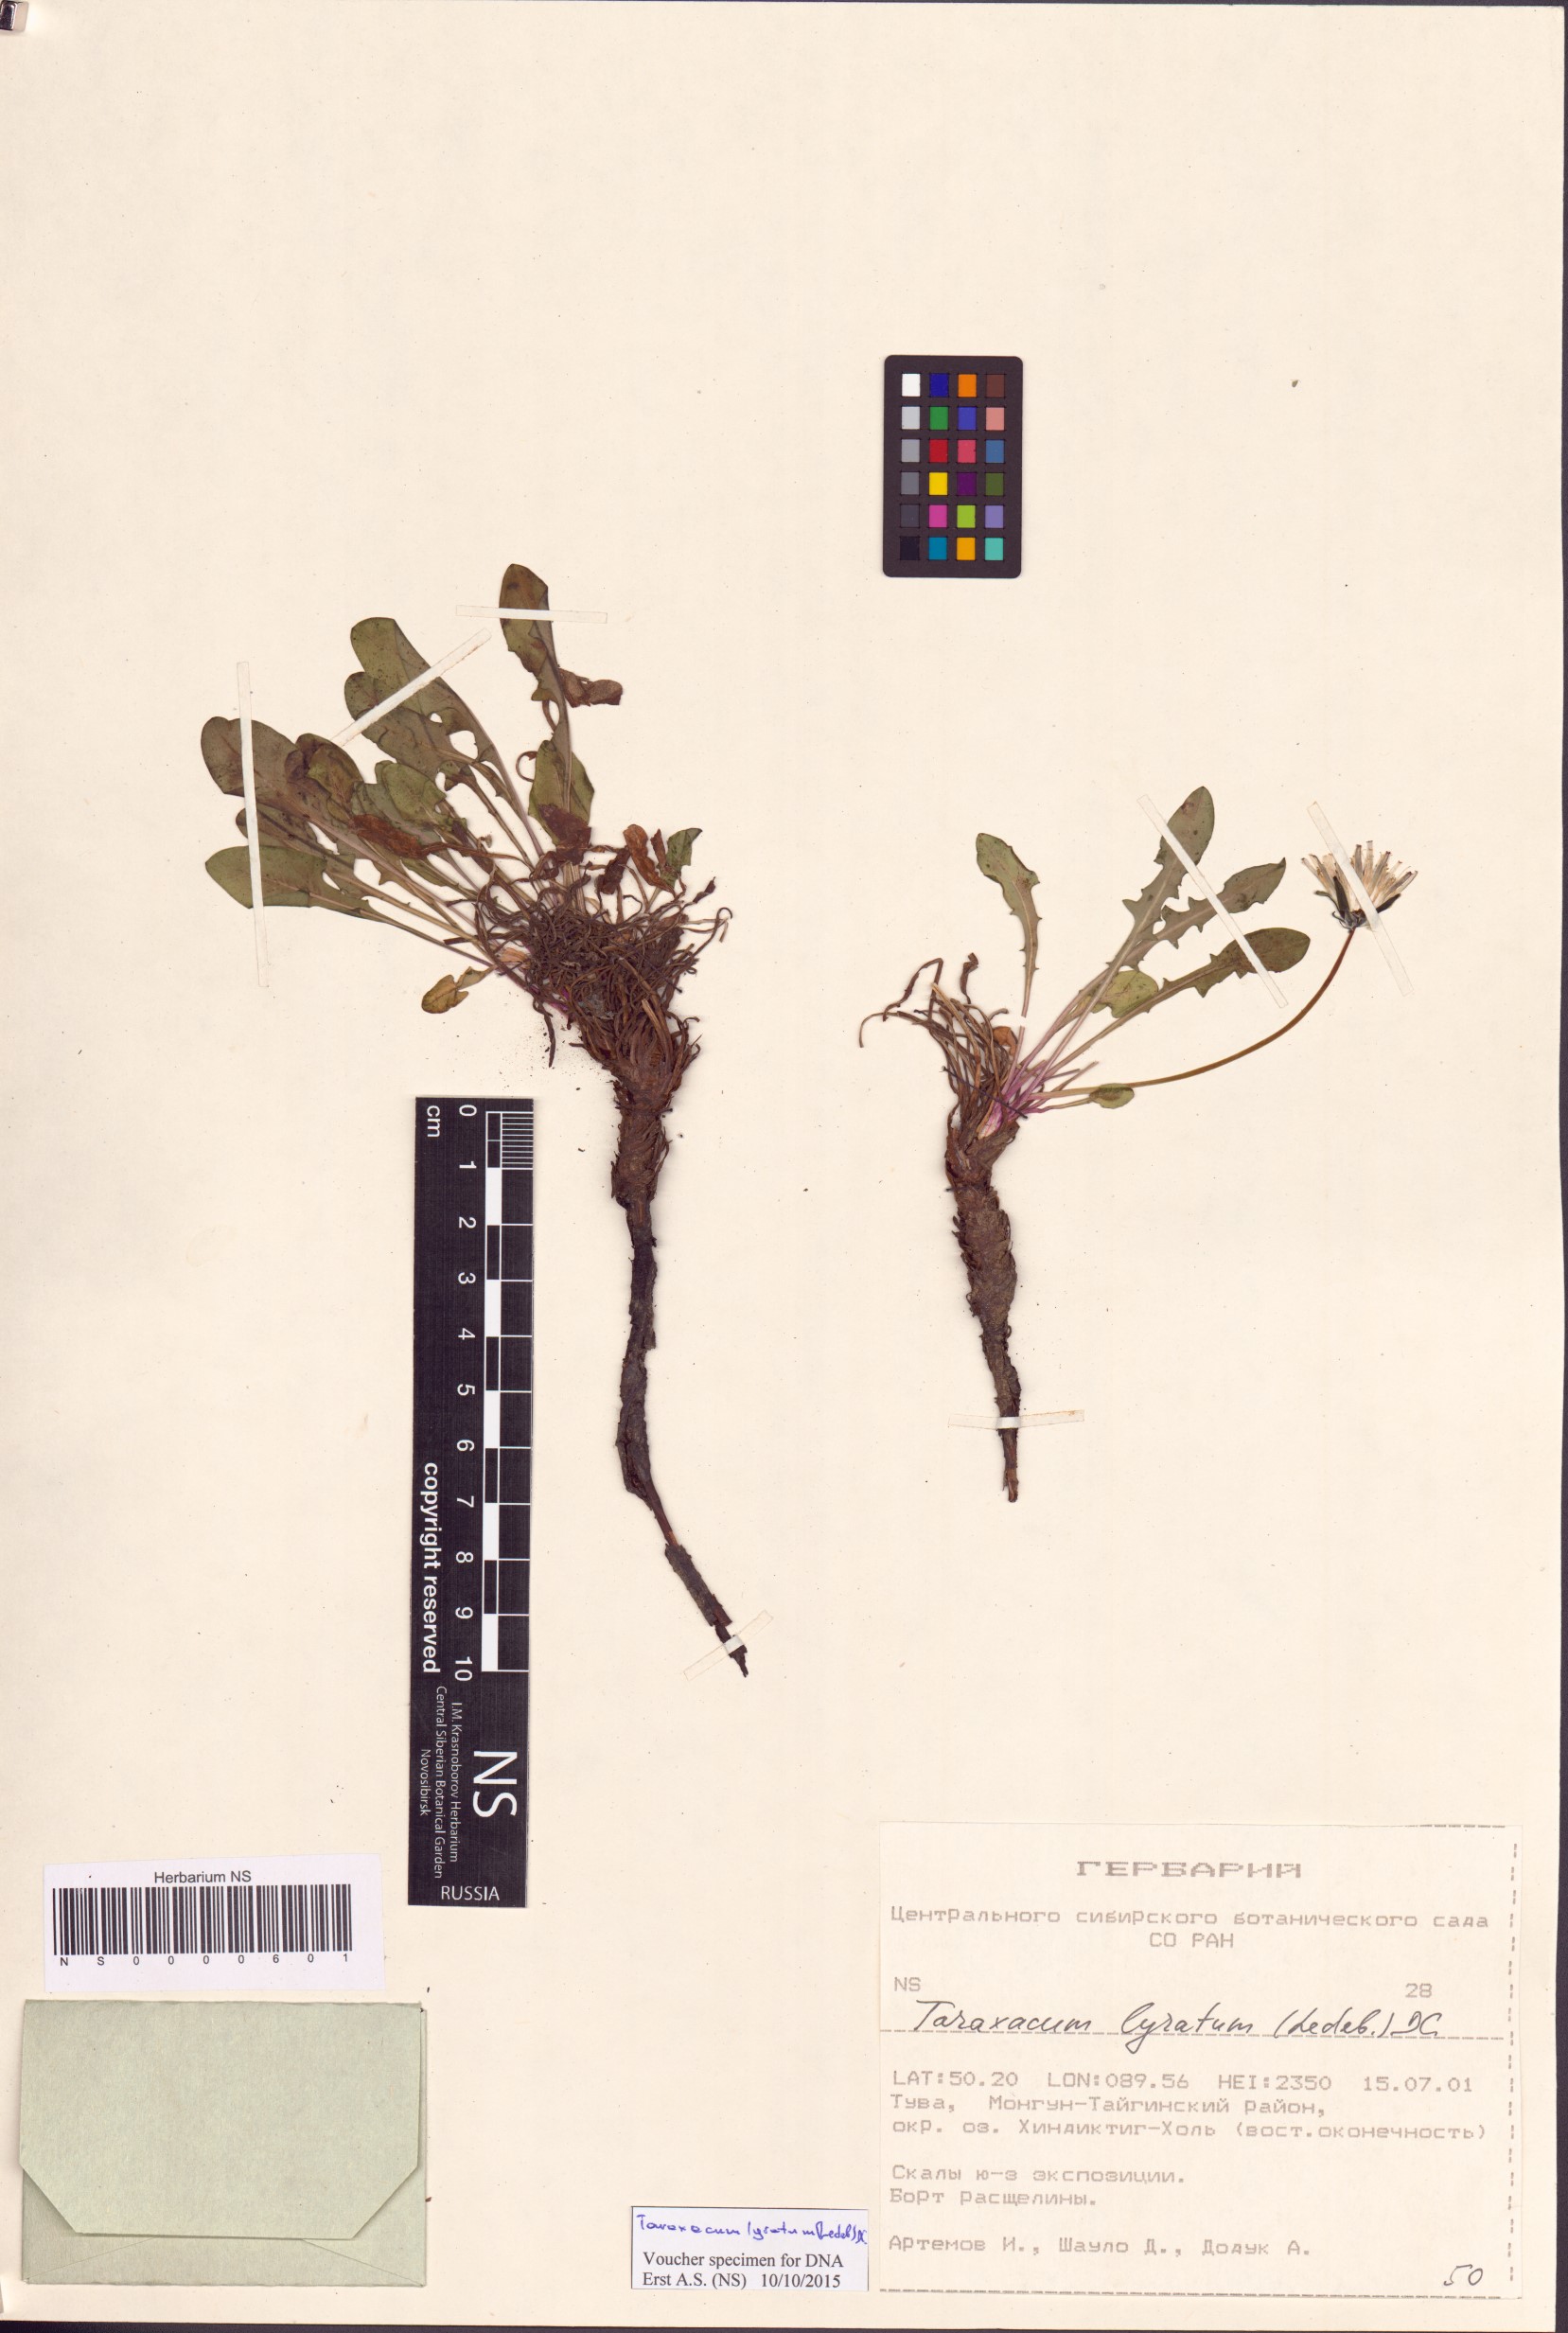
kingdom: Plantae
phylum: Tracheophyta
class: Magnoliopsida
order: Asterales
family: Asteraceae
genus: Taraxacum
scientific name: Taraxacum alaskanum
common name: Alaska dandelion
